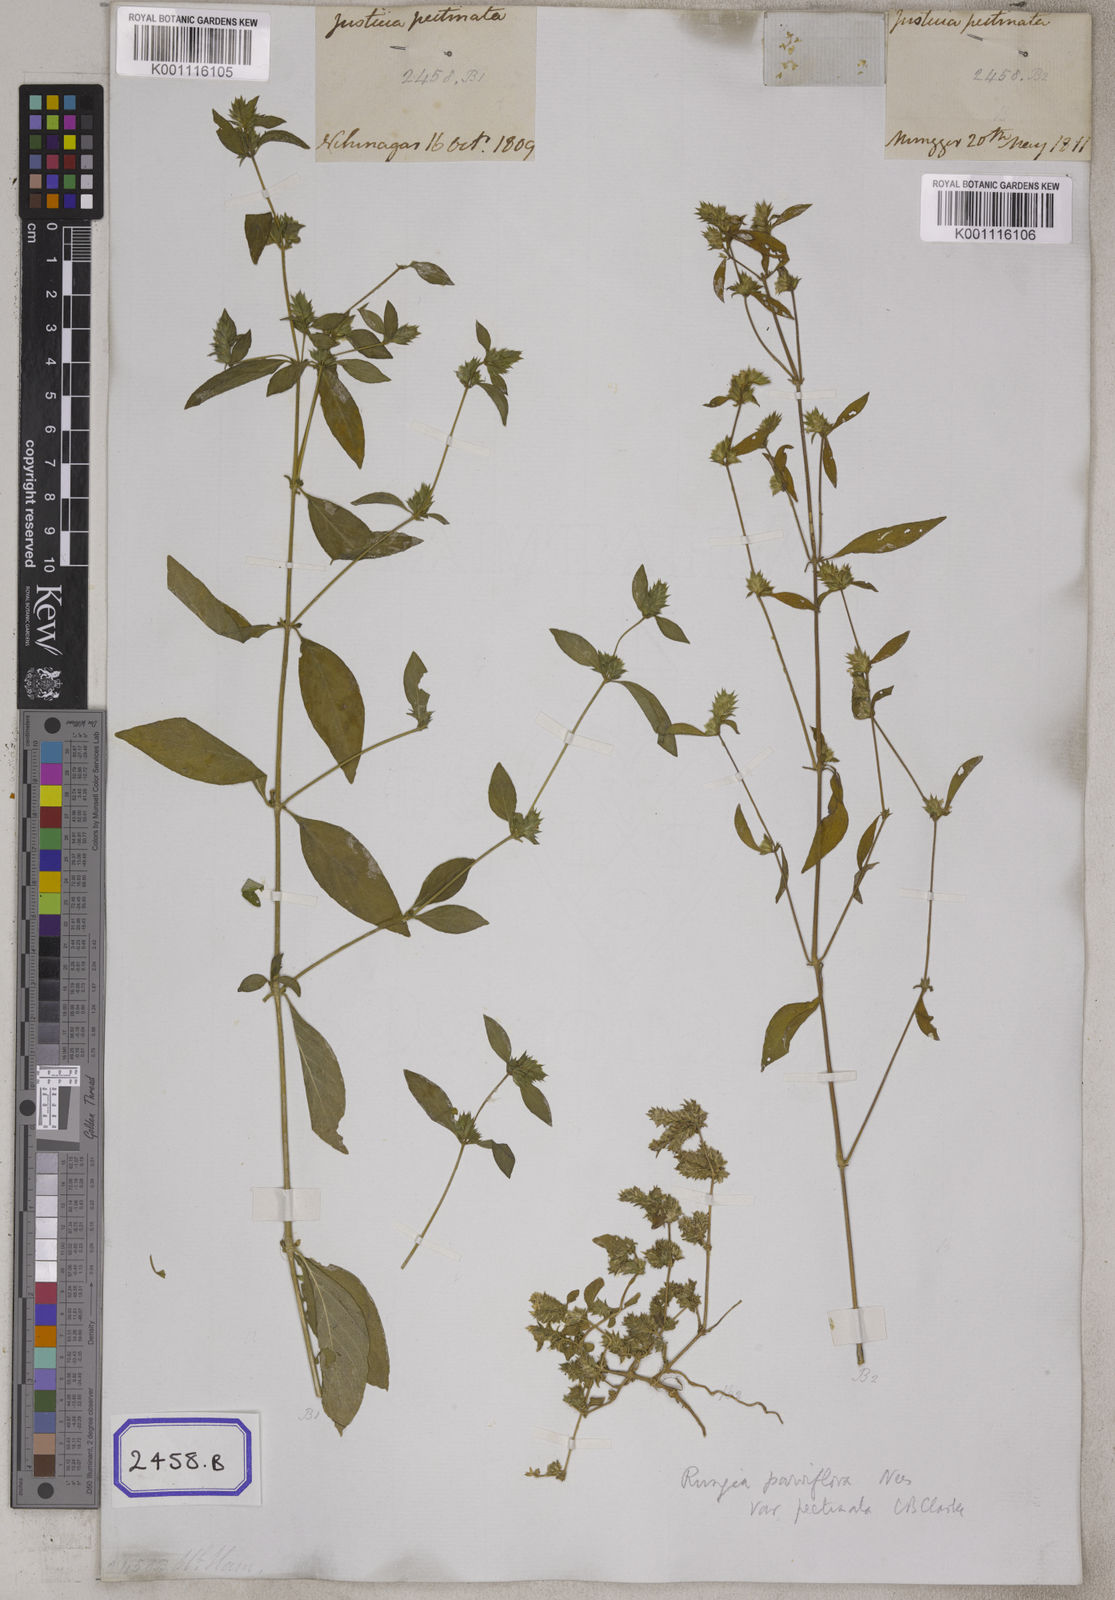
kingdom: Plantae
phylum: Tracheophyta
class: Magnoliopsida
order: Lamiales
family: Acanthaceae
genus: Rungia
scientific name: Rungia pectinata
